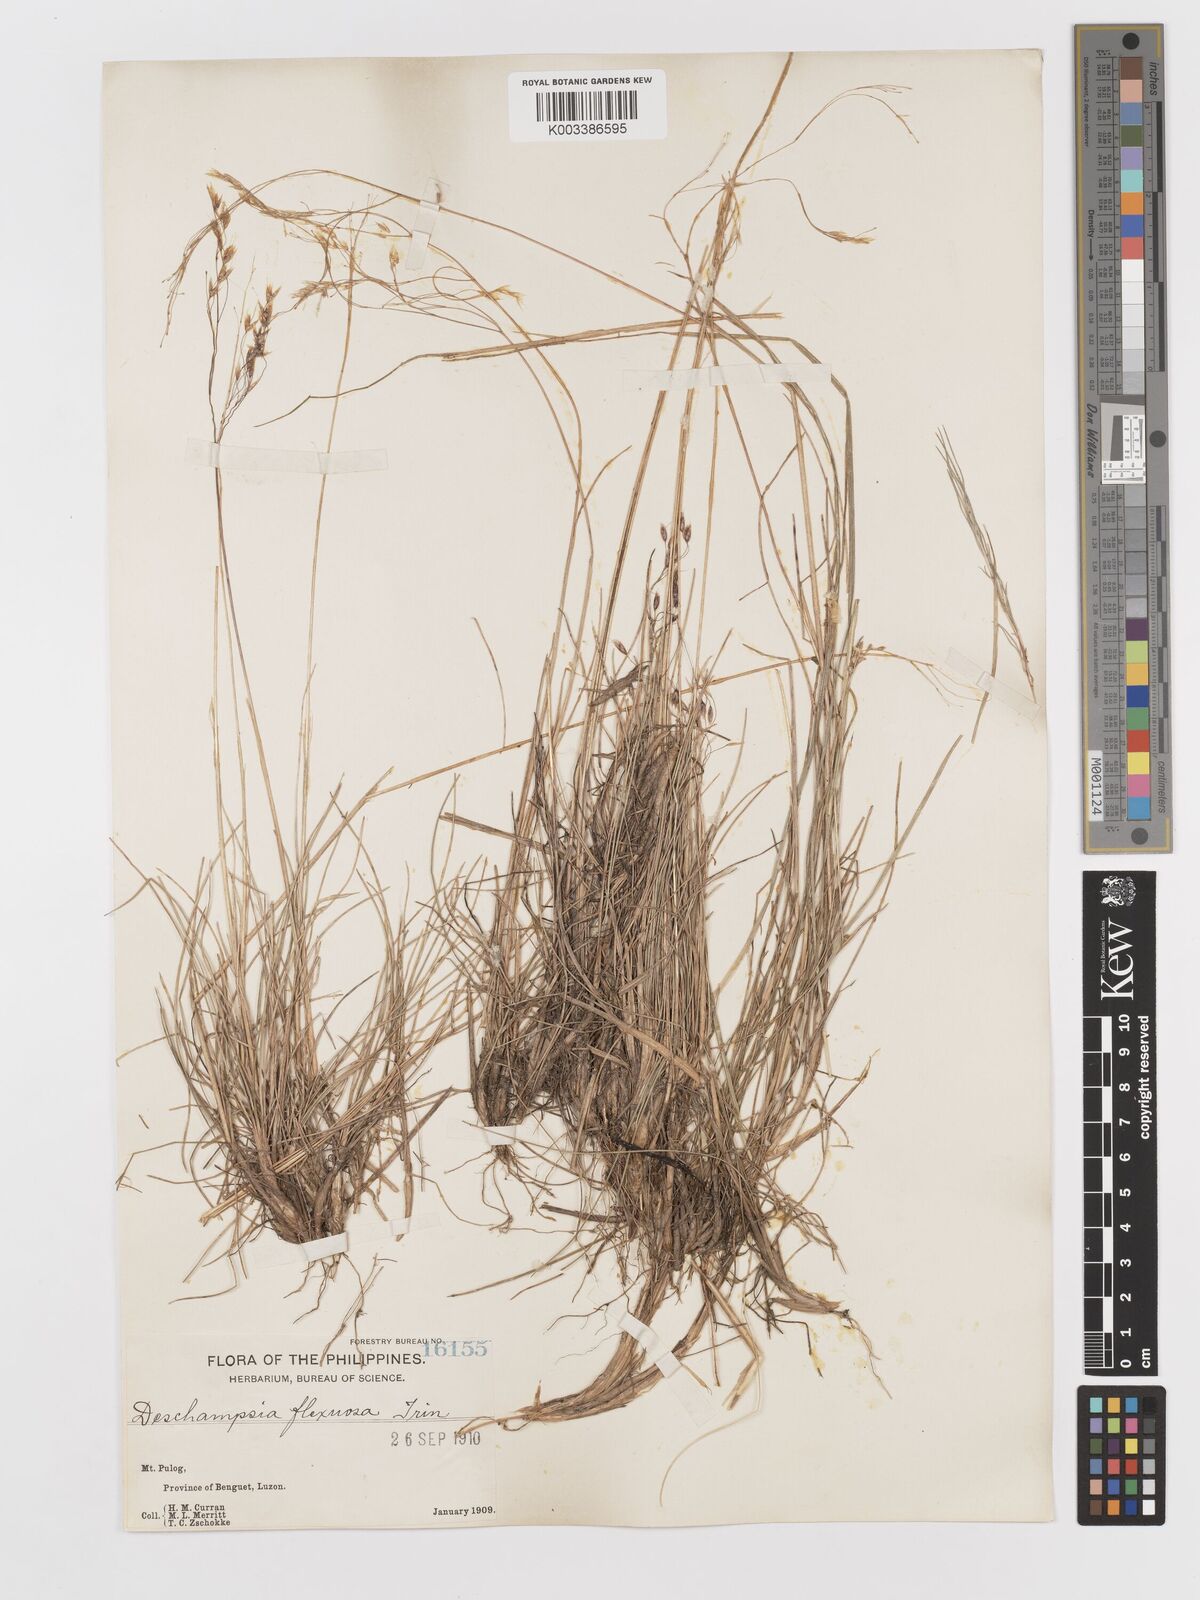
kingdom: Plantae
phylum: Tracheophyta
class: Liliopsida
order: Poales
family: Poaceae
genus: Avenella
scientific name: Avenella flexuosa
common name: Wavy hairgrass
